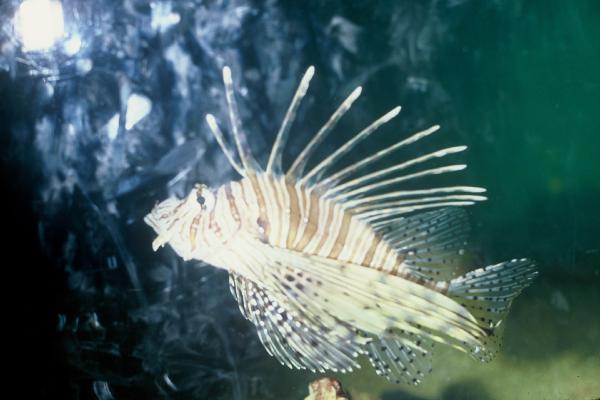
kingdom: Animalia
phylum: Chordata
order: Scorpaeniformes
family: Scorpaenidae
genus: Pterois
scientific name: Pterois
